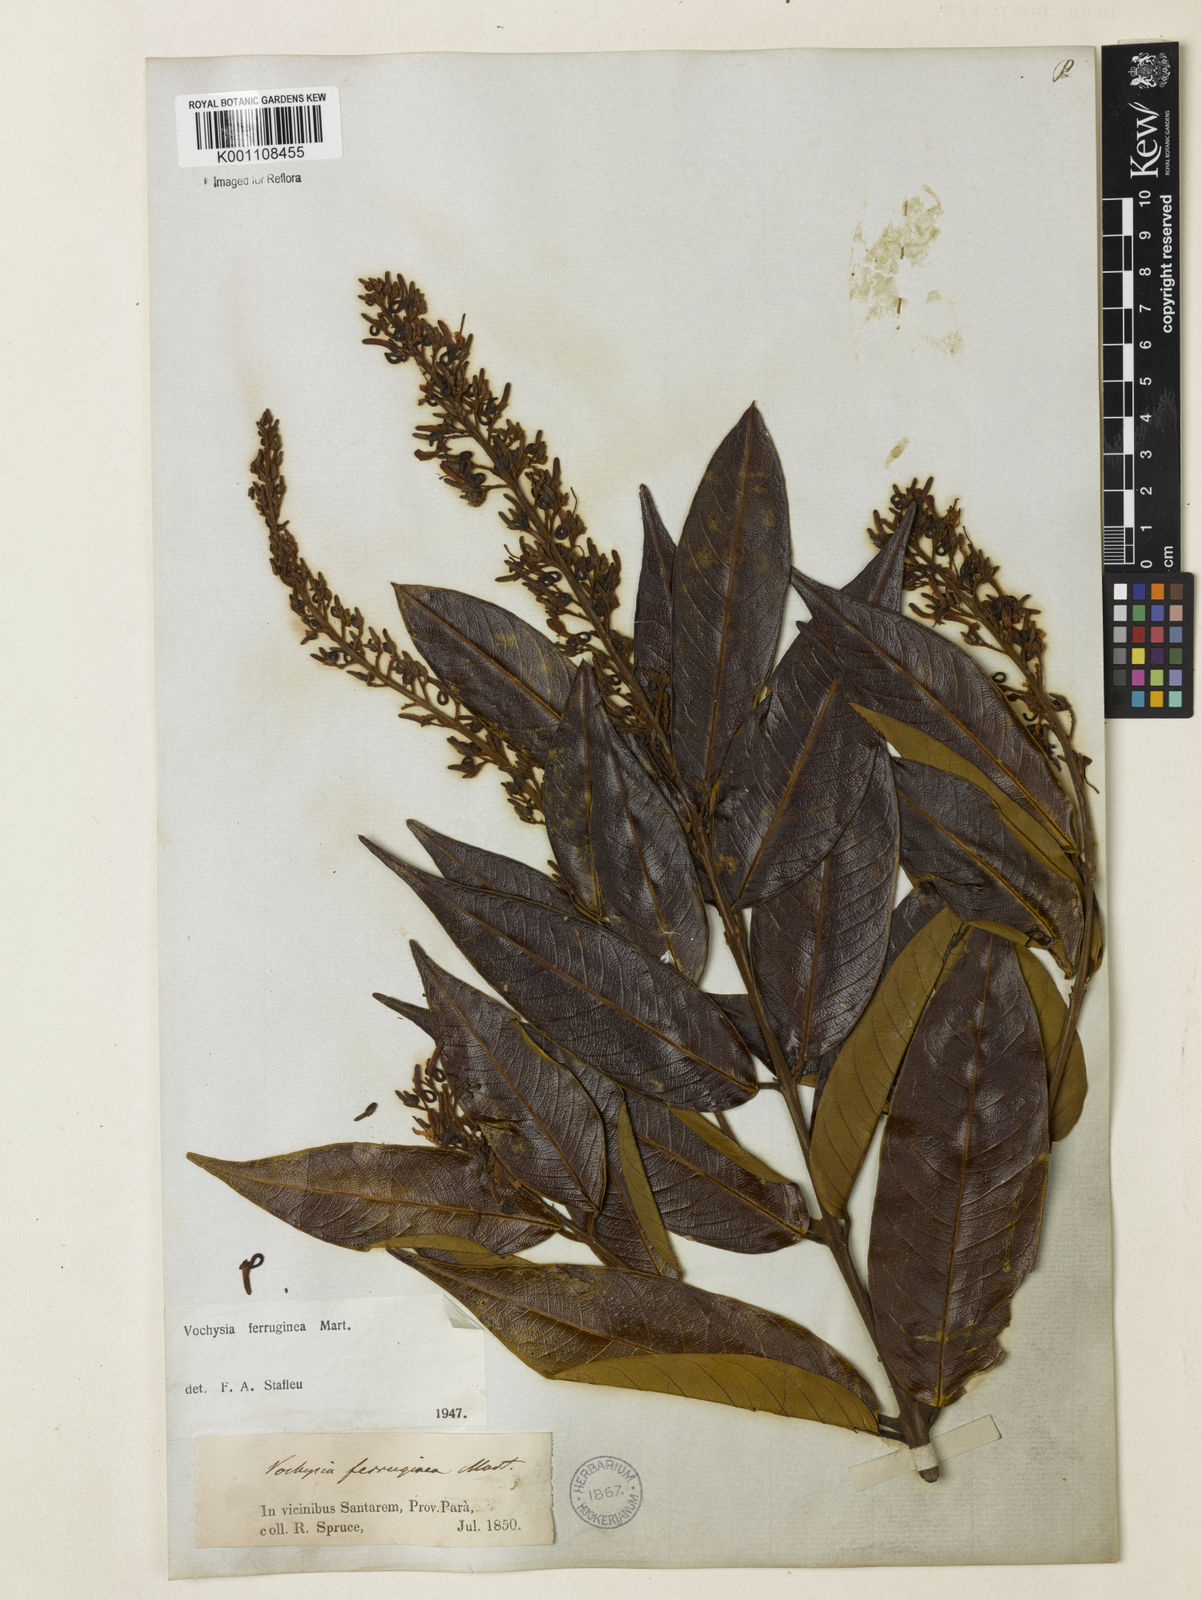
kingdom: Plantae
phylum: Tracheophyta
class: Magnoliopsida
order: Myrtales
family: Vochysiaceae
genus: Vochysia
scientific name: Vochysia ferruginea
